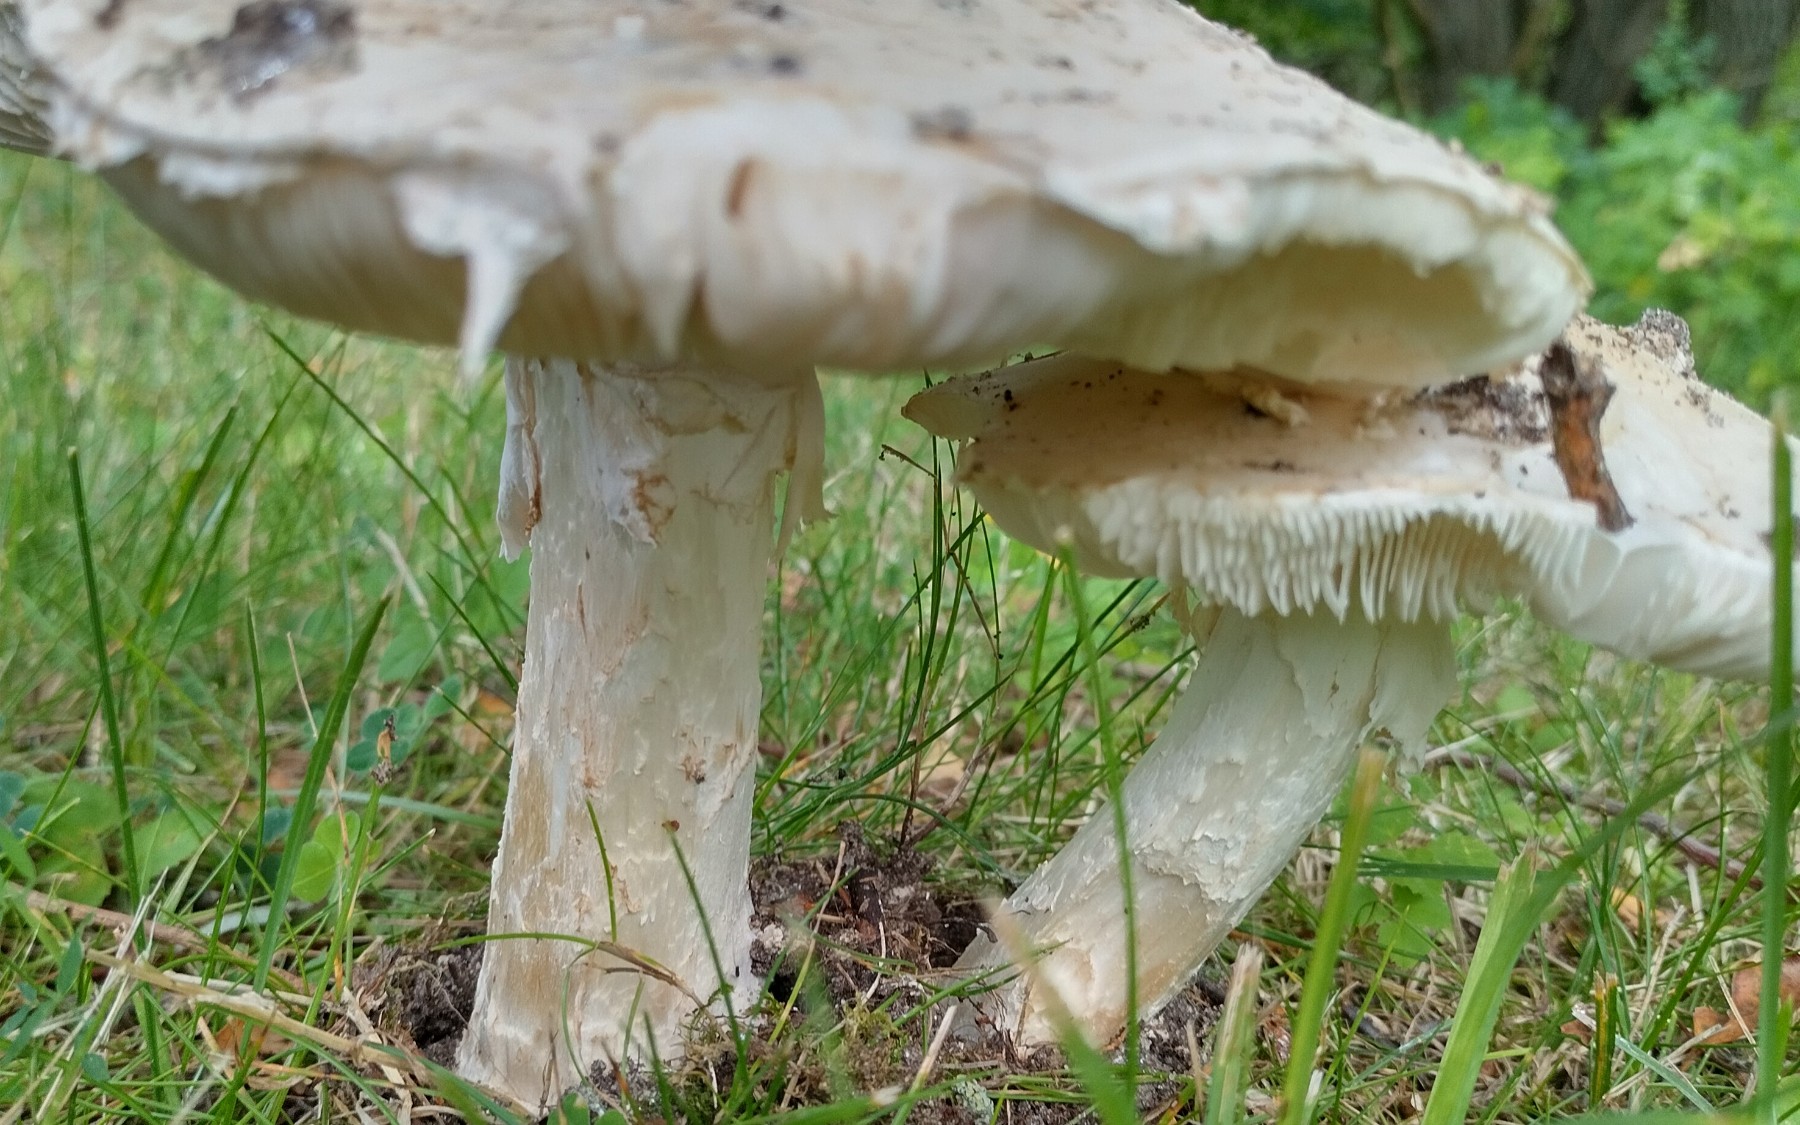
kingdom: Fungi
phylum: Basidiomycota
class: Agaricomycetes
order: Agaricales
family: Amanitaceae
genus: Amanita
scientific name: Amanita
